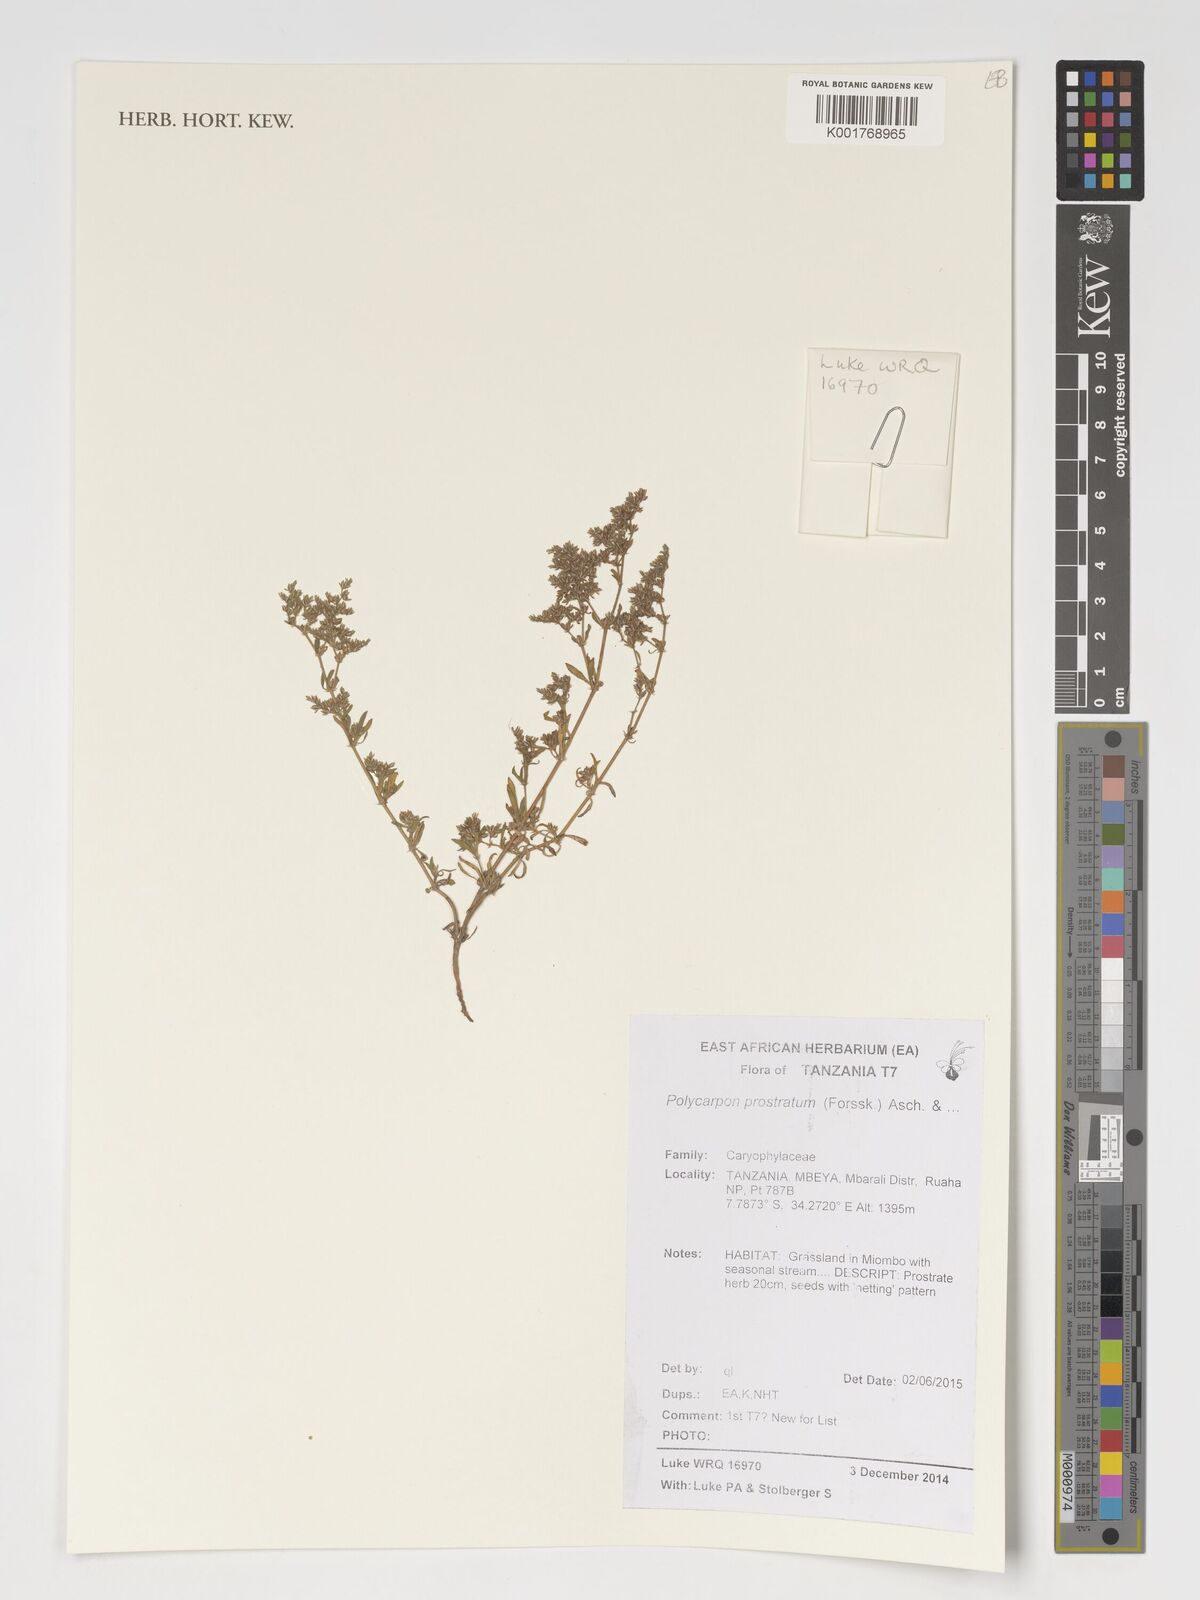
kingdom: Plantae
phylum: Tracheophyta
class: Magnoliopsida
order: Caryophyllales
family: Caryophyllaceae
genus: Polycarpon
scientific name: Polycarpon prostratum
